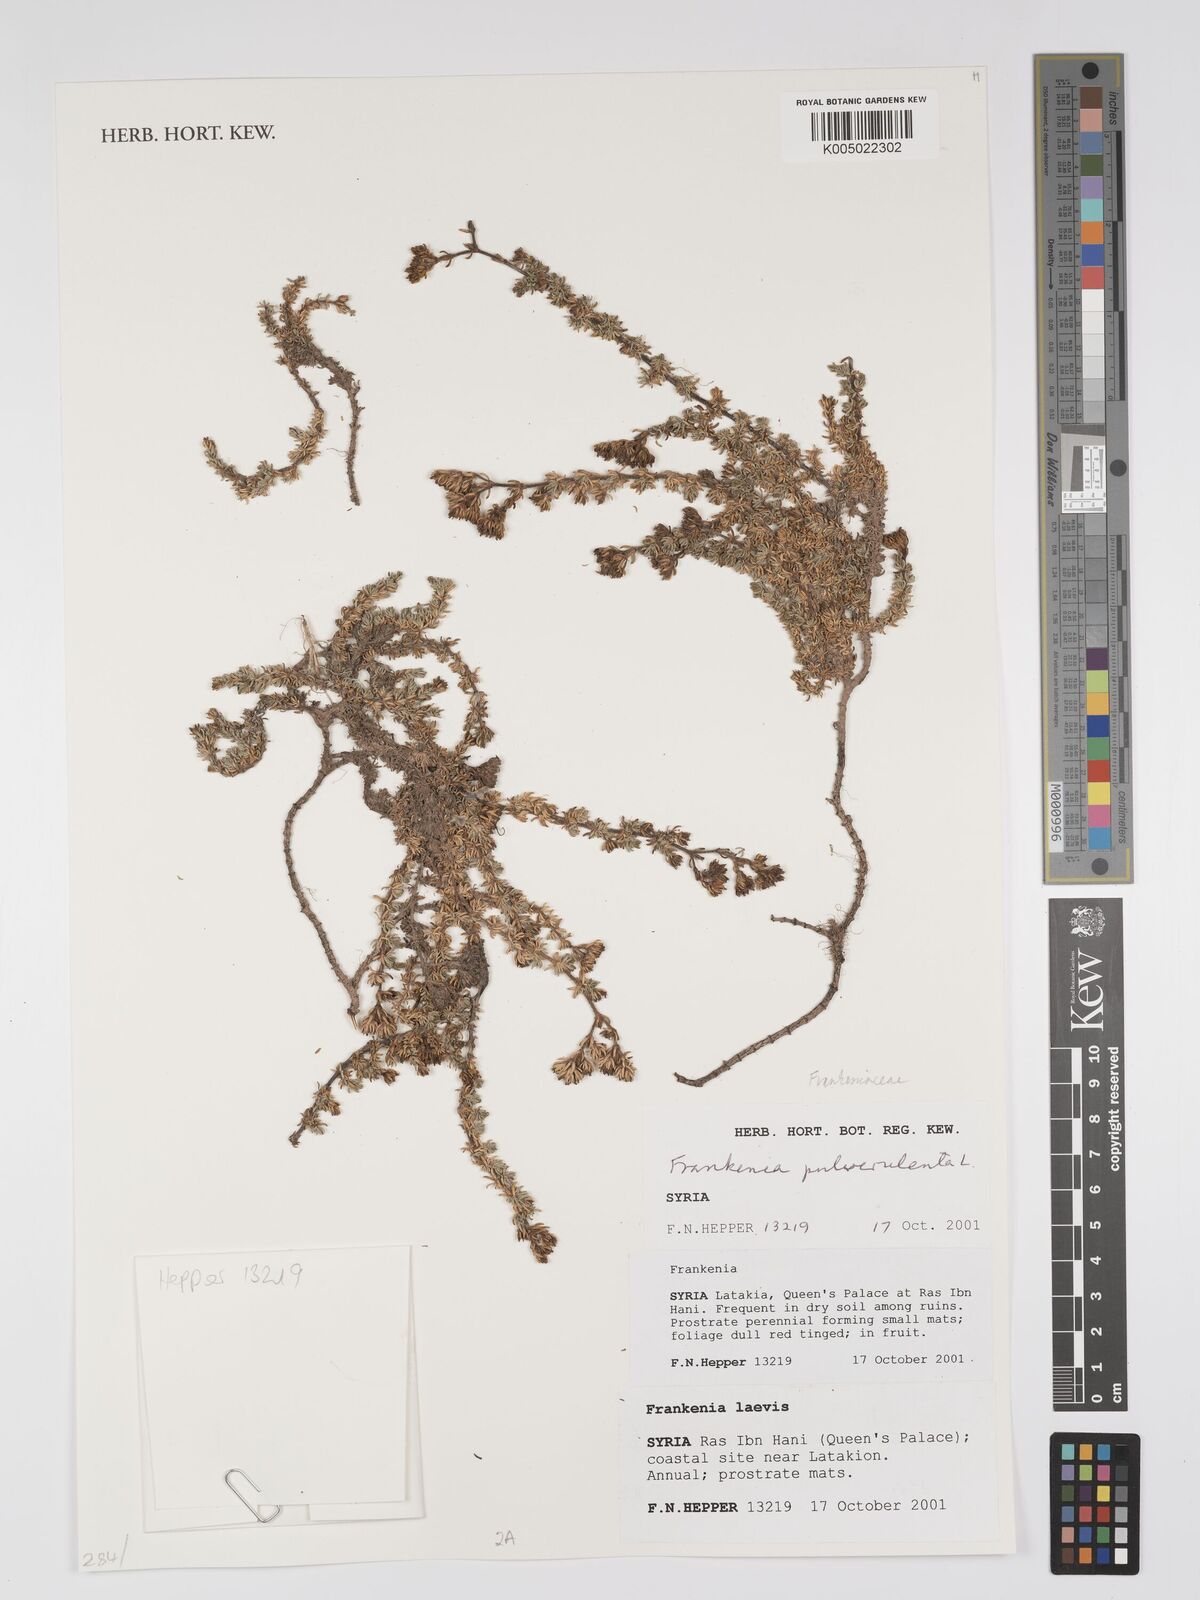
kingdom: Plantae
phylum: Tracheophyta
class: Magnoliopsida
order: Caryophyllales
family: Frankeniaceae
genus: Frankenia
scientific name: Frankenia pulverulenta
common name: European seaheath
